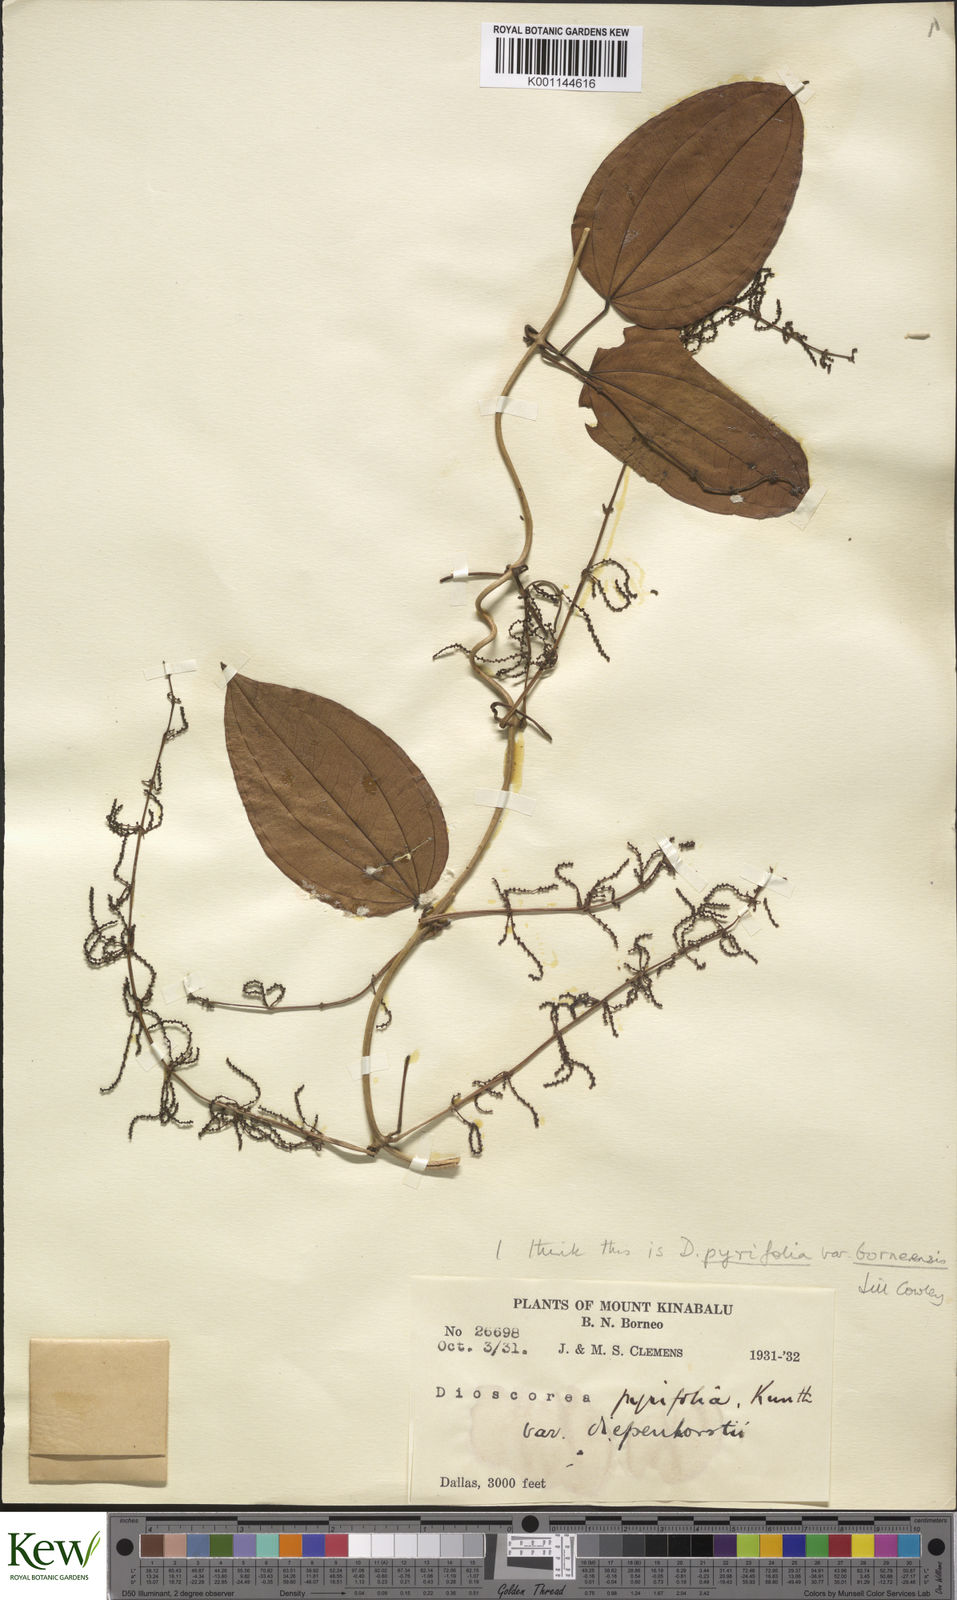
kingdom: Plantae
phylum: Tracheophyta
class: Liliopsida
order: Dioscoreales
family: Dioscoreaceae
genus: Dioscorea
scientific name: Dioscorea pyrifolia
